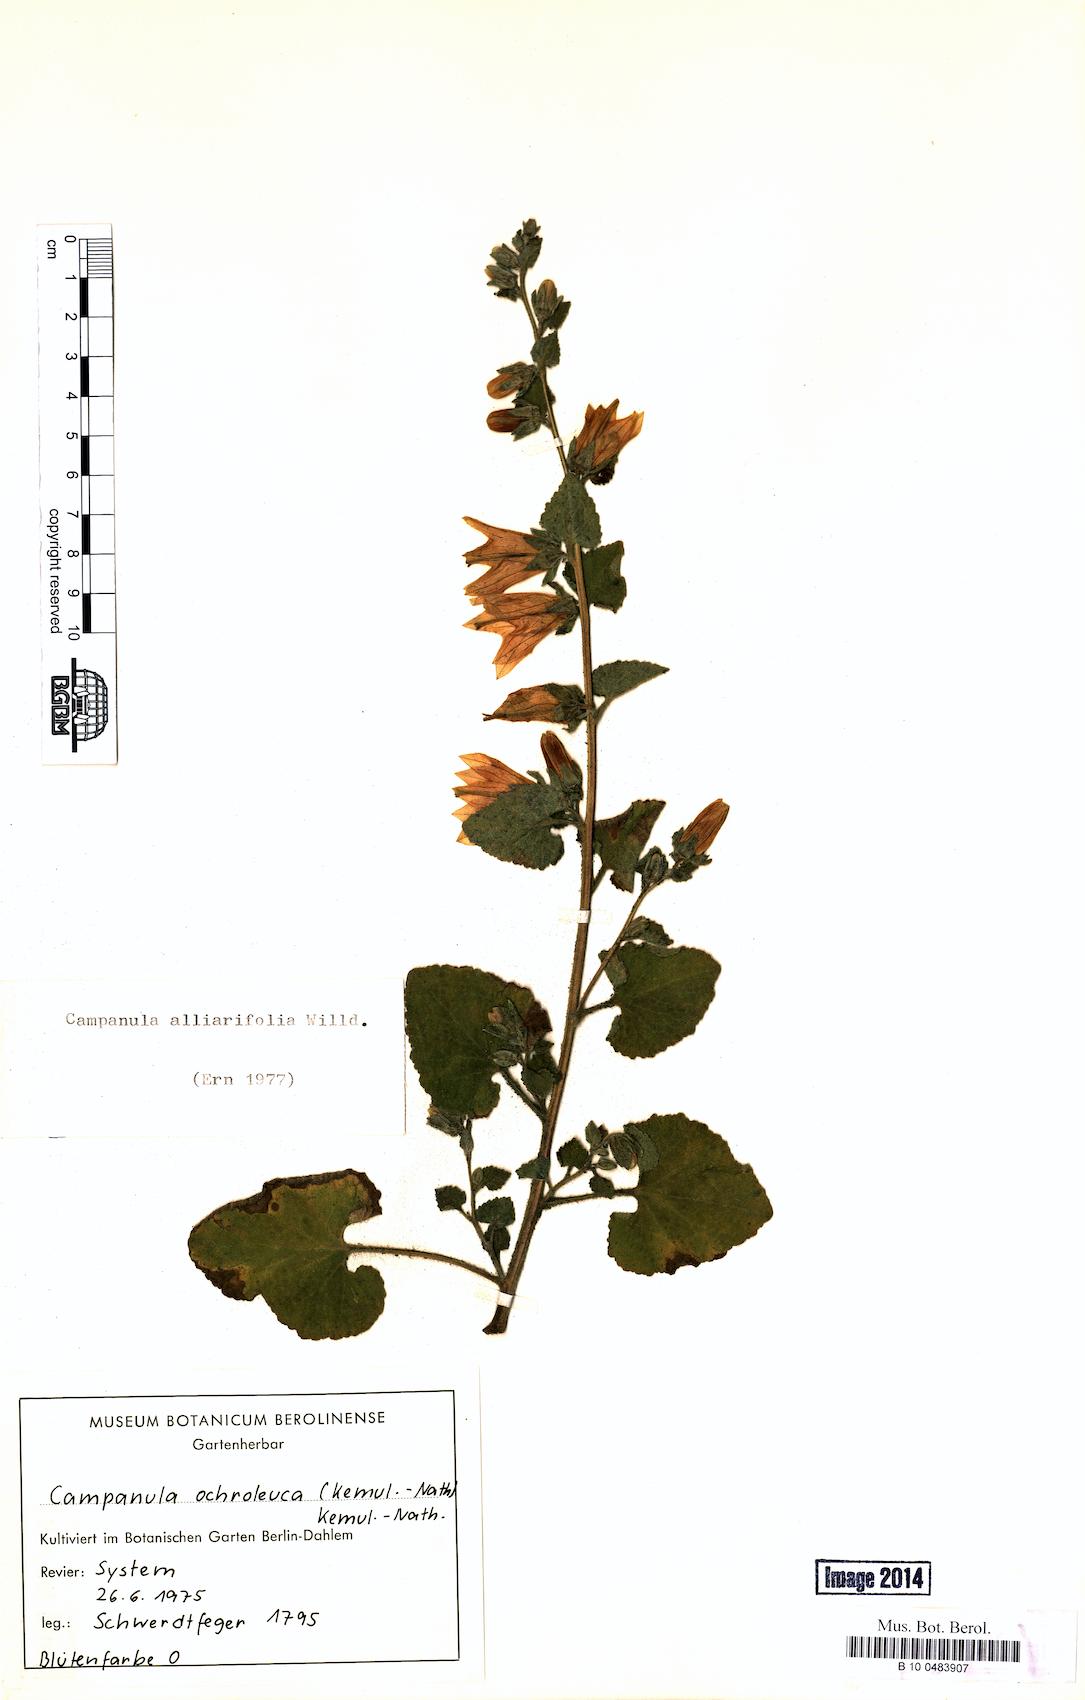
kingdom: Plantae
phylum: Tracheophyta
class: Magnoliopsida
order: Asterales
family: Campanulaceae
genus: Campanula
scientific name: Campanula alliariifolia
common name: Cornish bellflower
